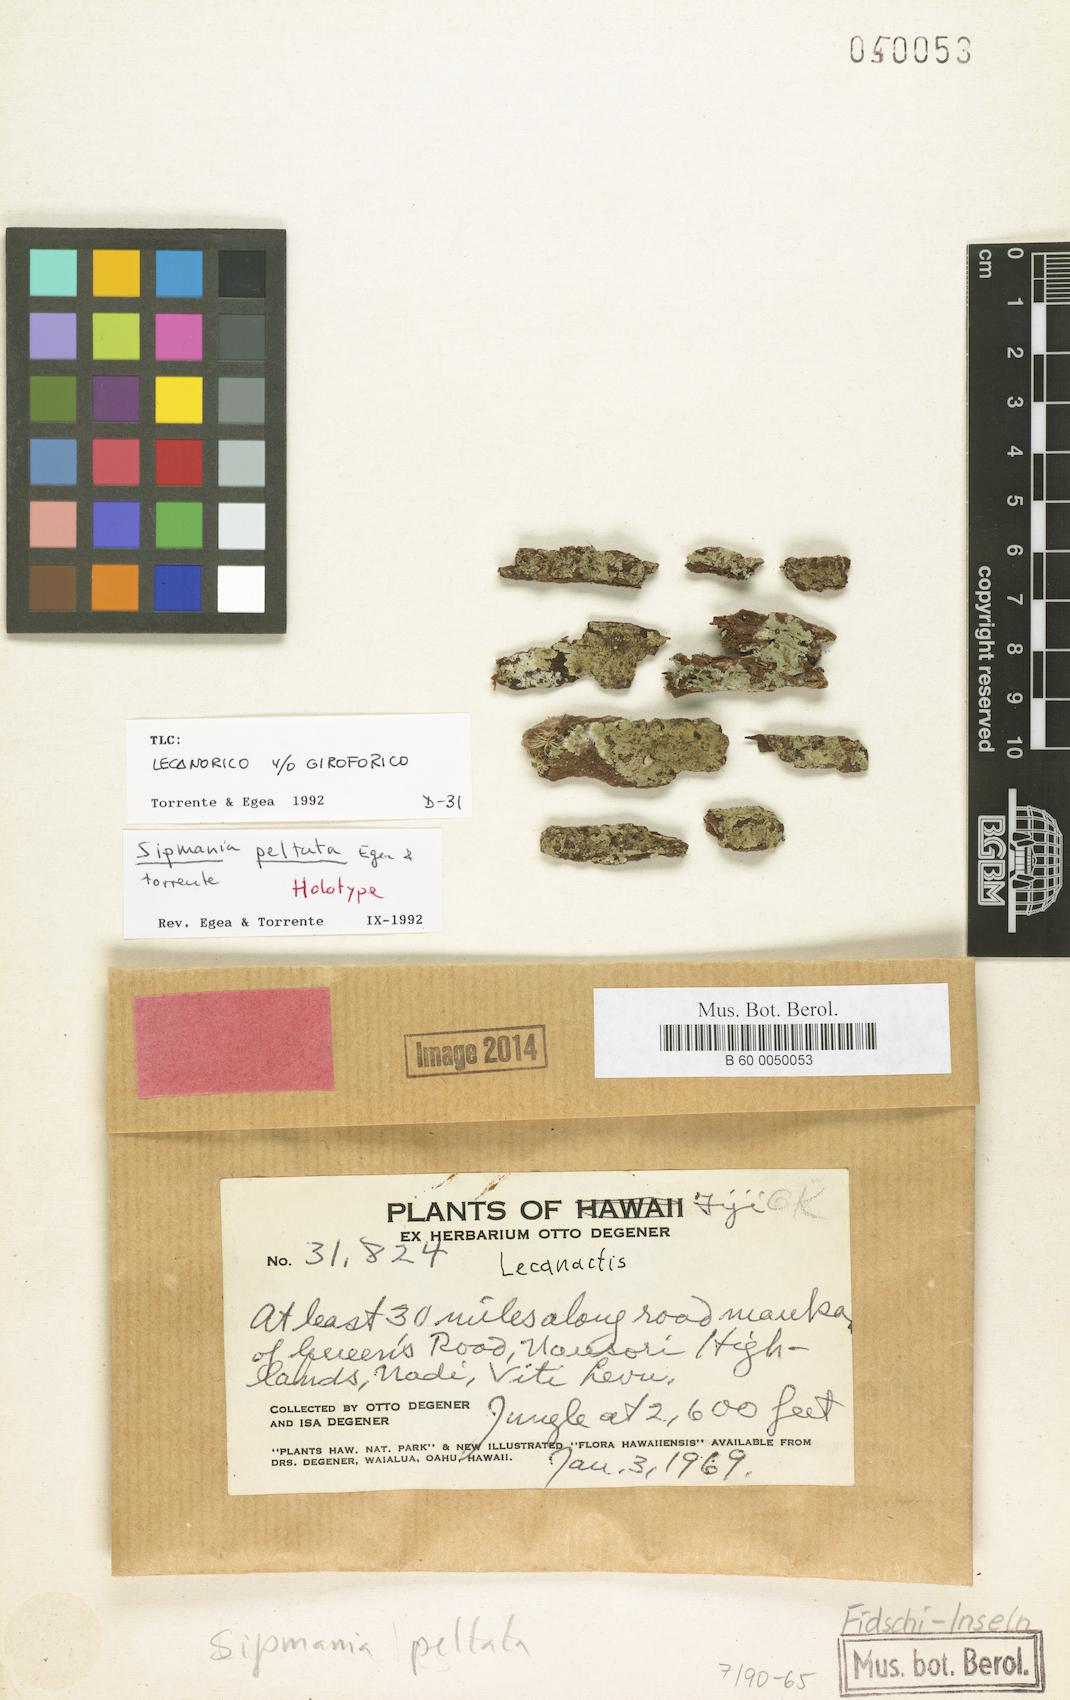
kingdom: Fungi
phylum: Ascomycota
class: Arthoniomycetes
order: Arthoniales
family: Roccellaceae
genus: Sipmania
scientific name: Sipmania peltata
